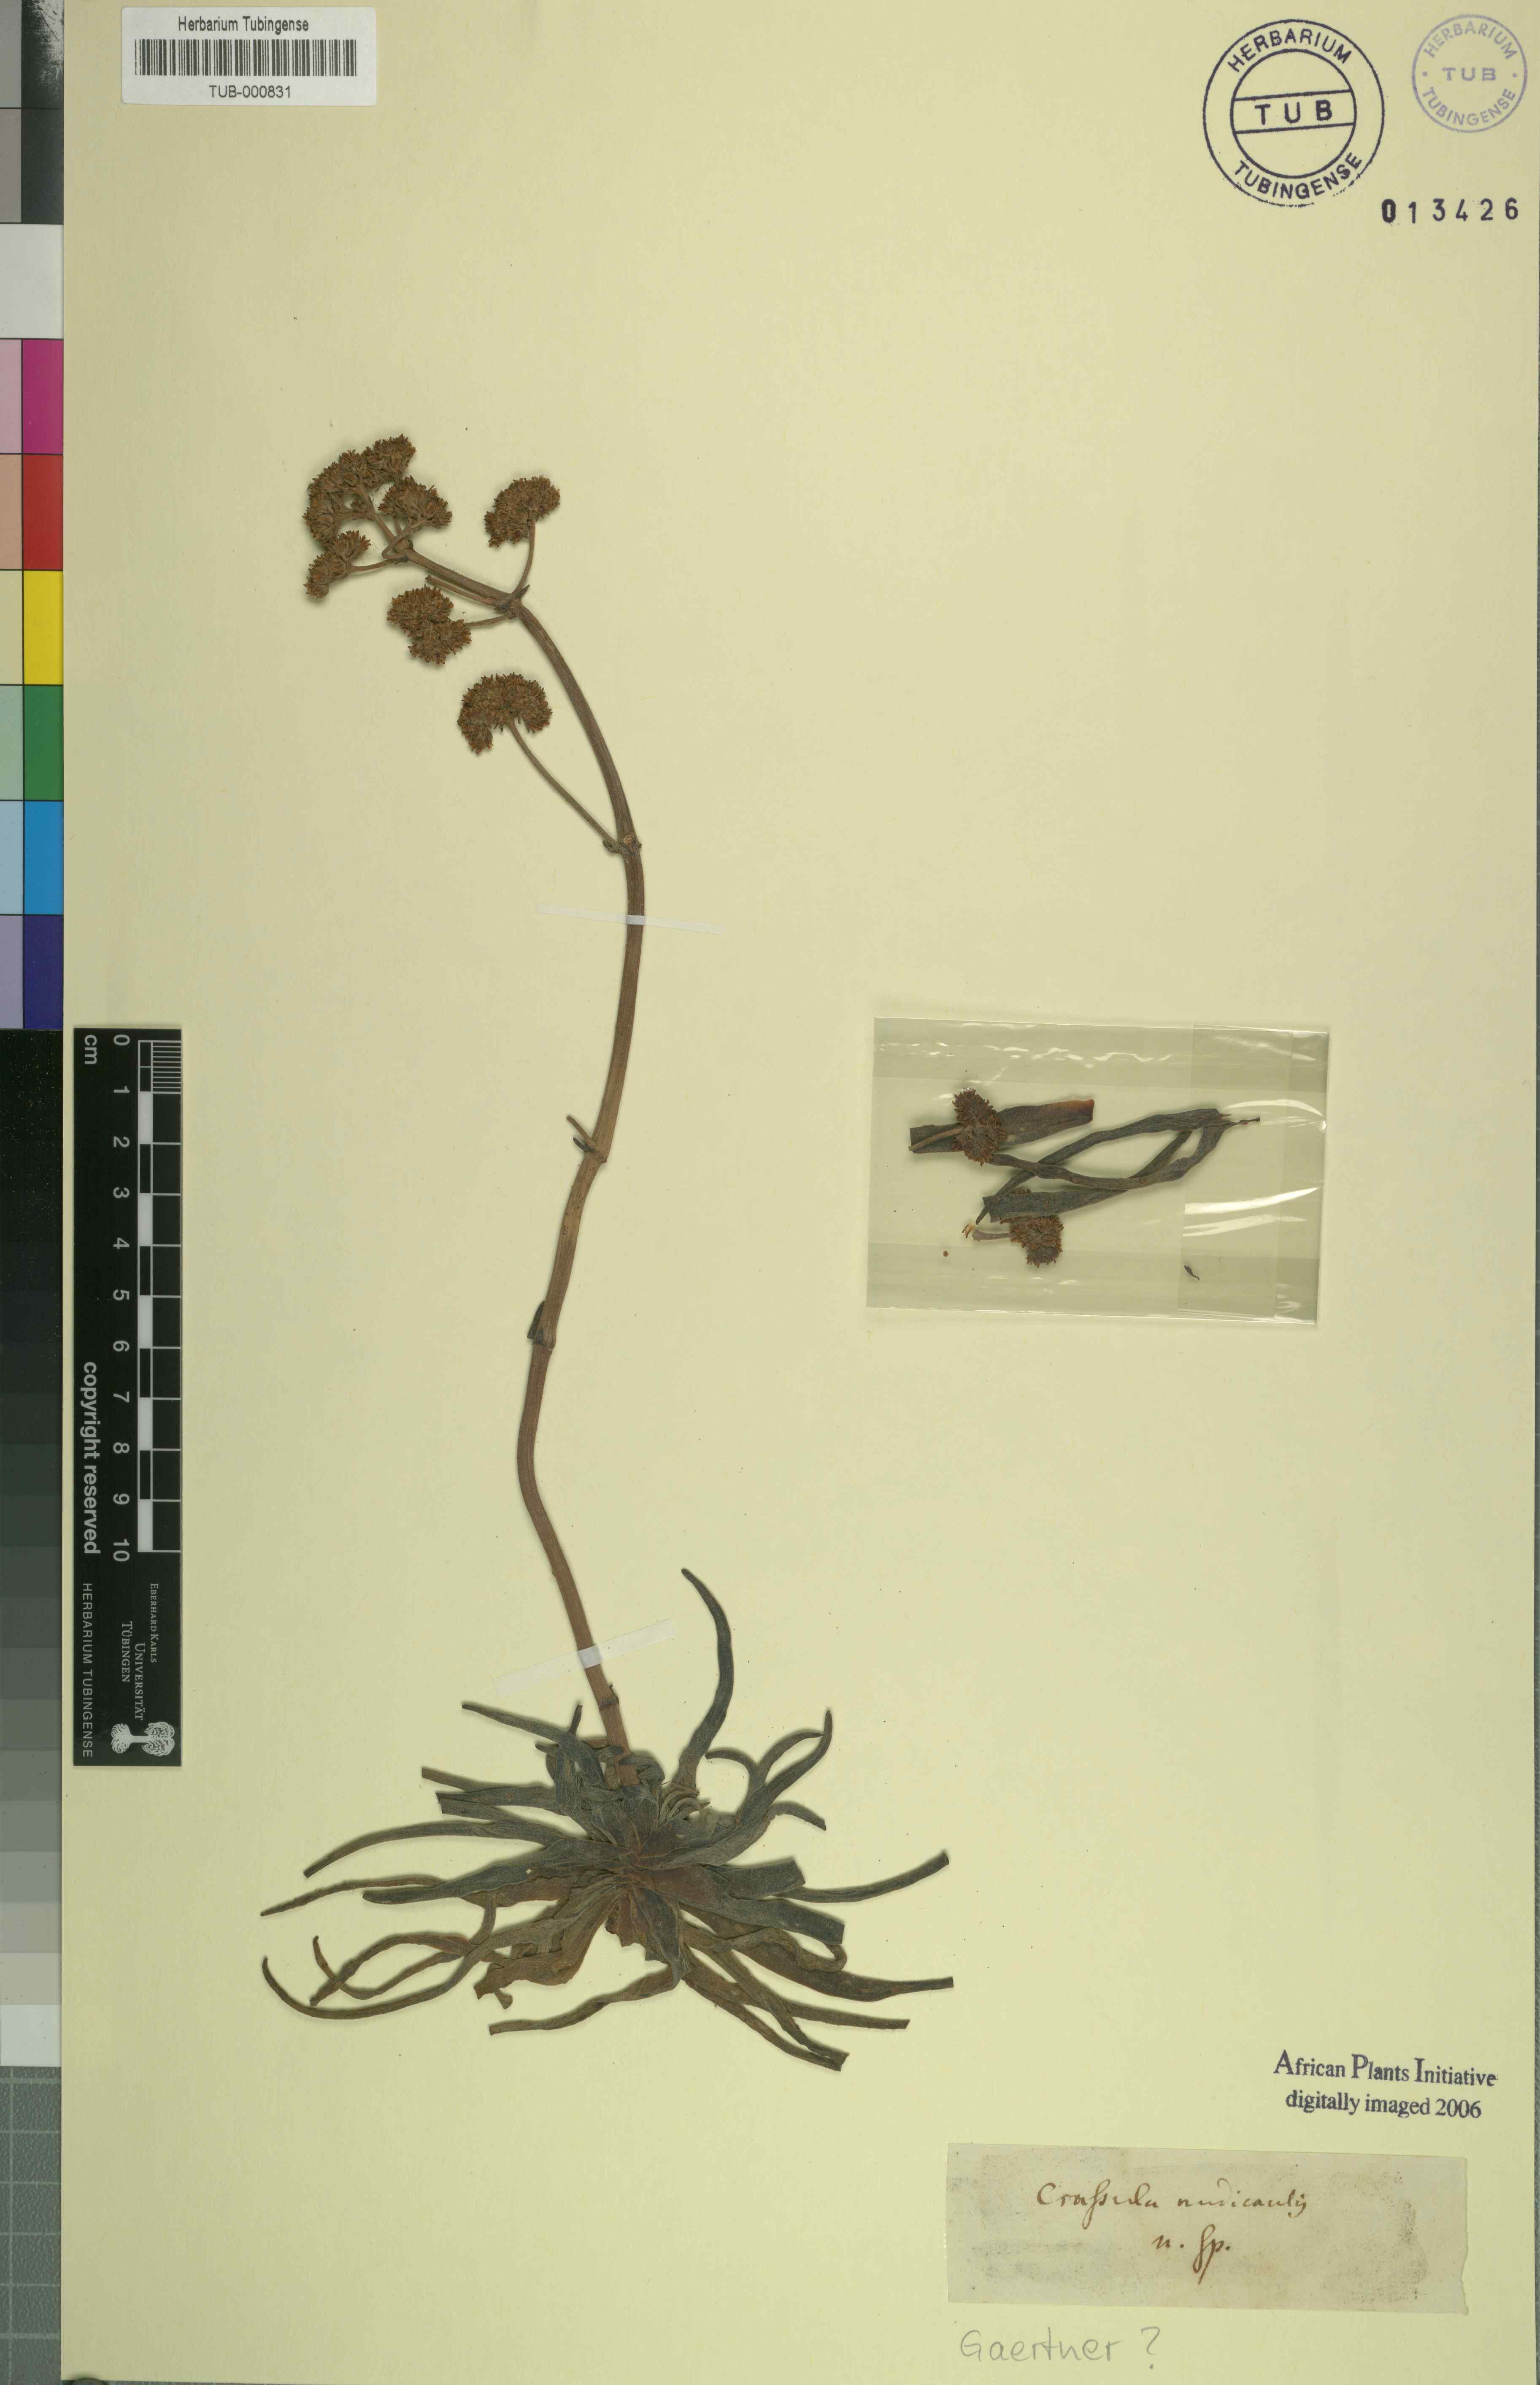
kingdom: Plantae
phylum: Tracheophyta
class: Magnoliopsida
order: Saxifragales
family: Crassulaceae
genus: Crassula
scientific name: Crassula nudicaulis
